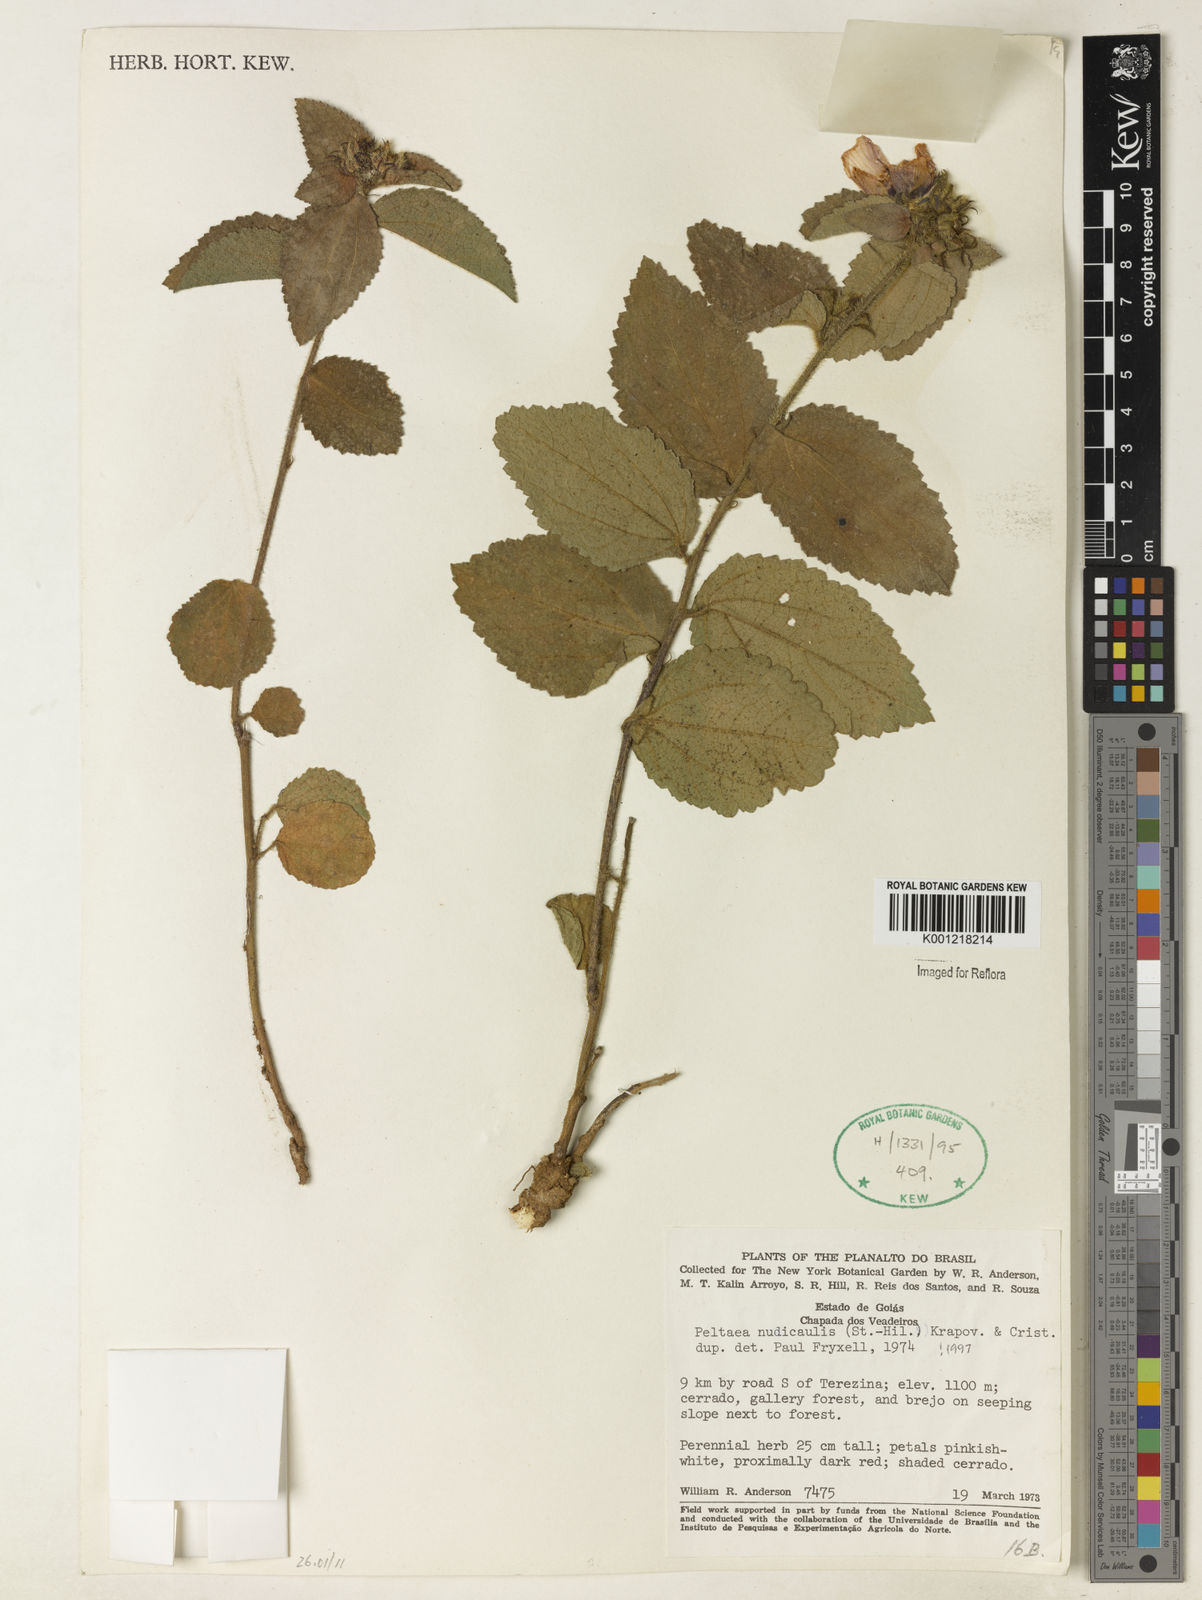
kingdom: Plantae
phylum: Tracheophyta
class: Magnoliopsida
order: Malvales
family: Malvaceae
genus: Peltaea
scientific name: Peltaea
